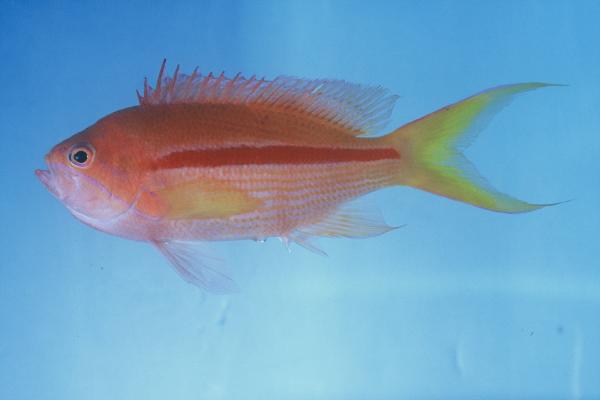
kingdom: Animalia
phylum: Chordata
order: Perciformes
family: Serranidae
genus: Pseudanthias
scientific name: Pseudanthias gibbosus
